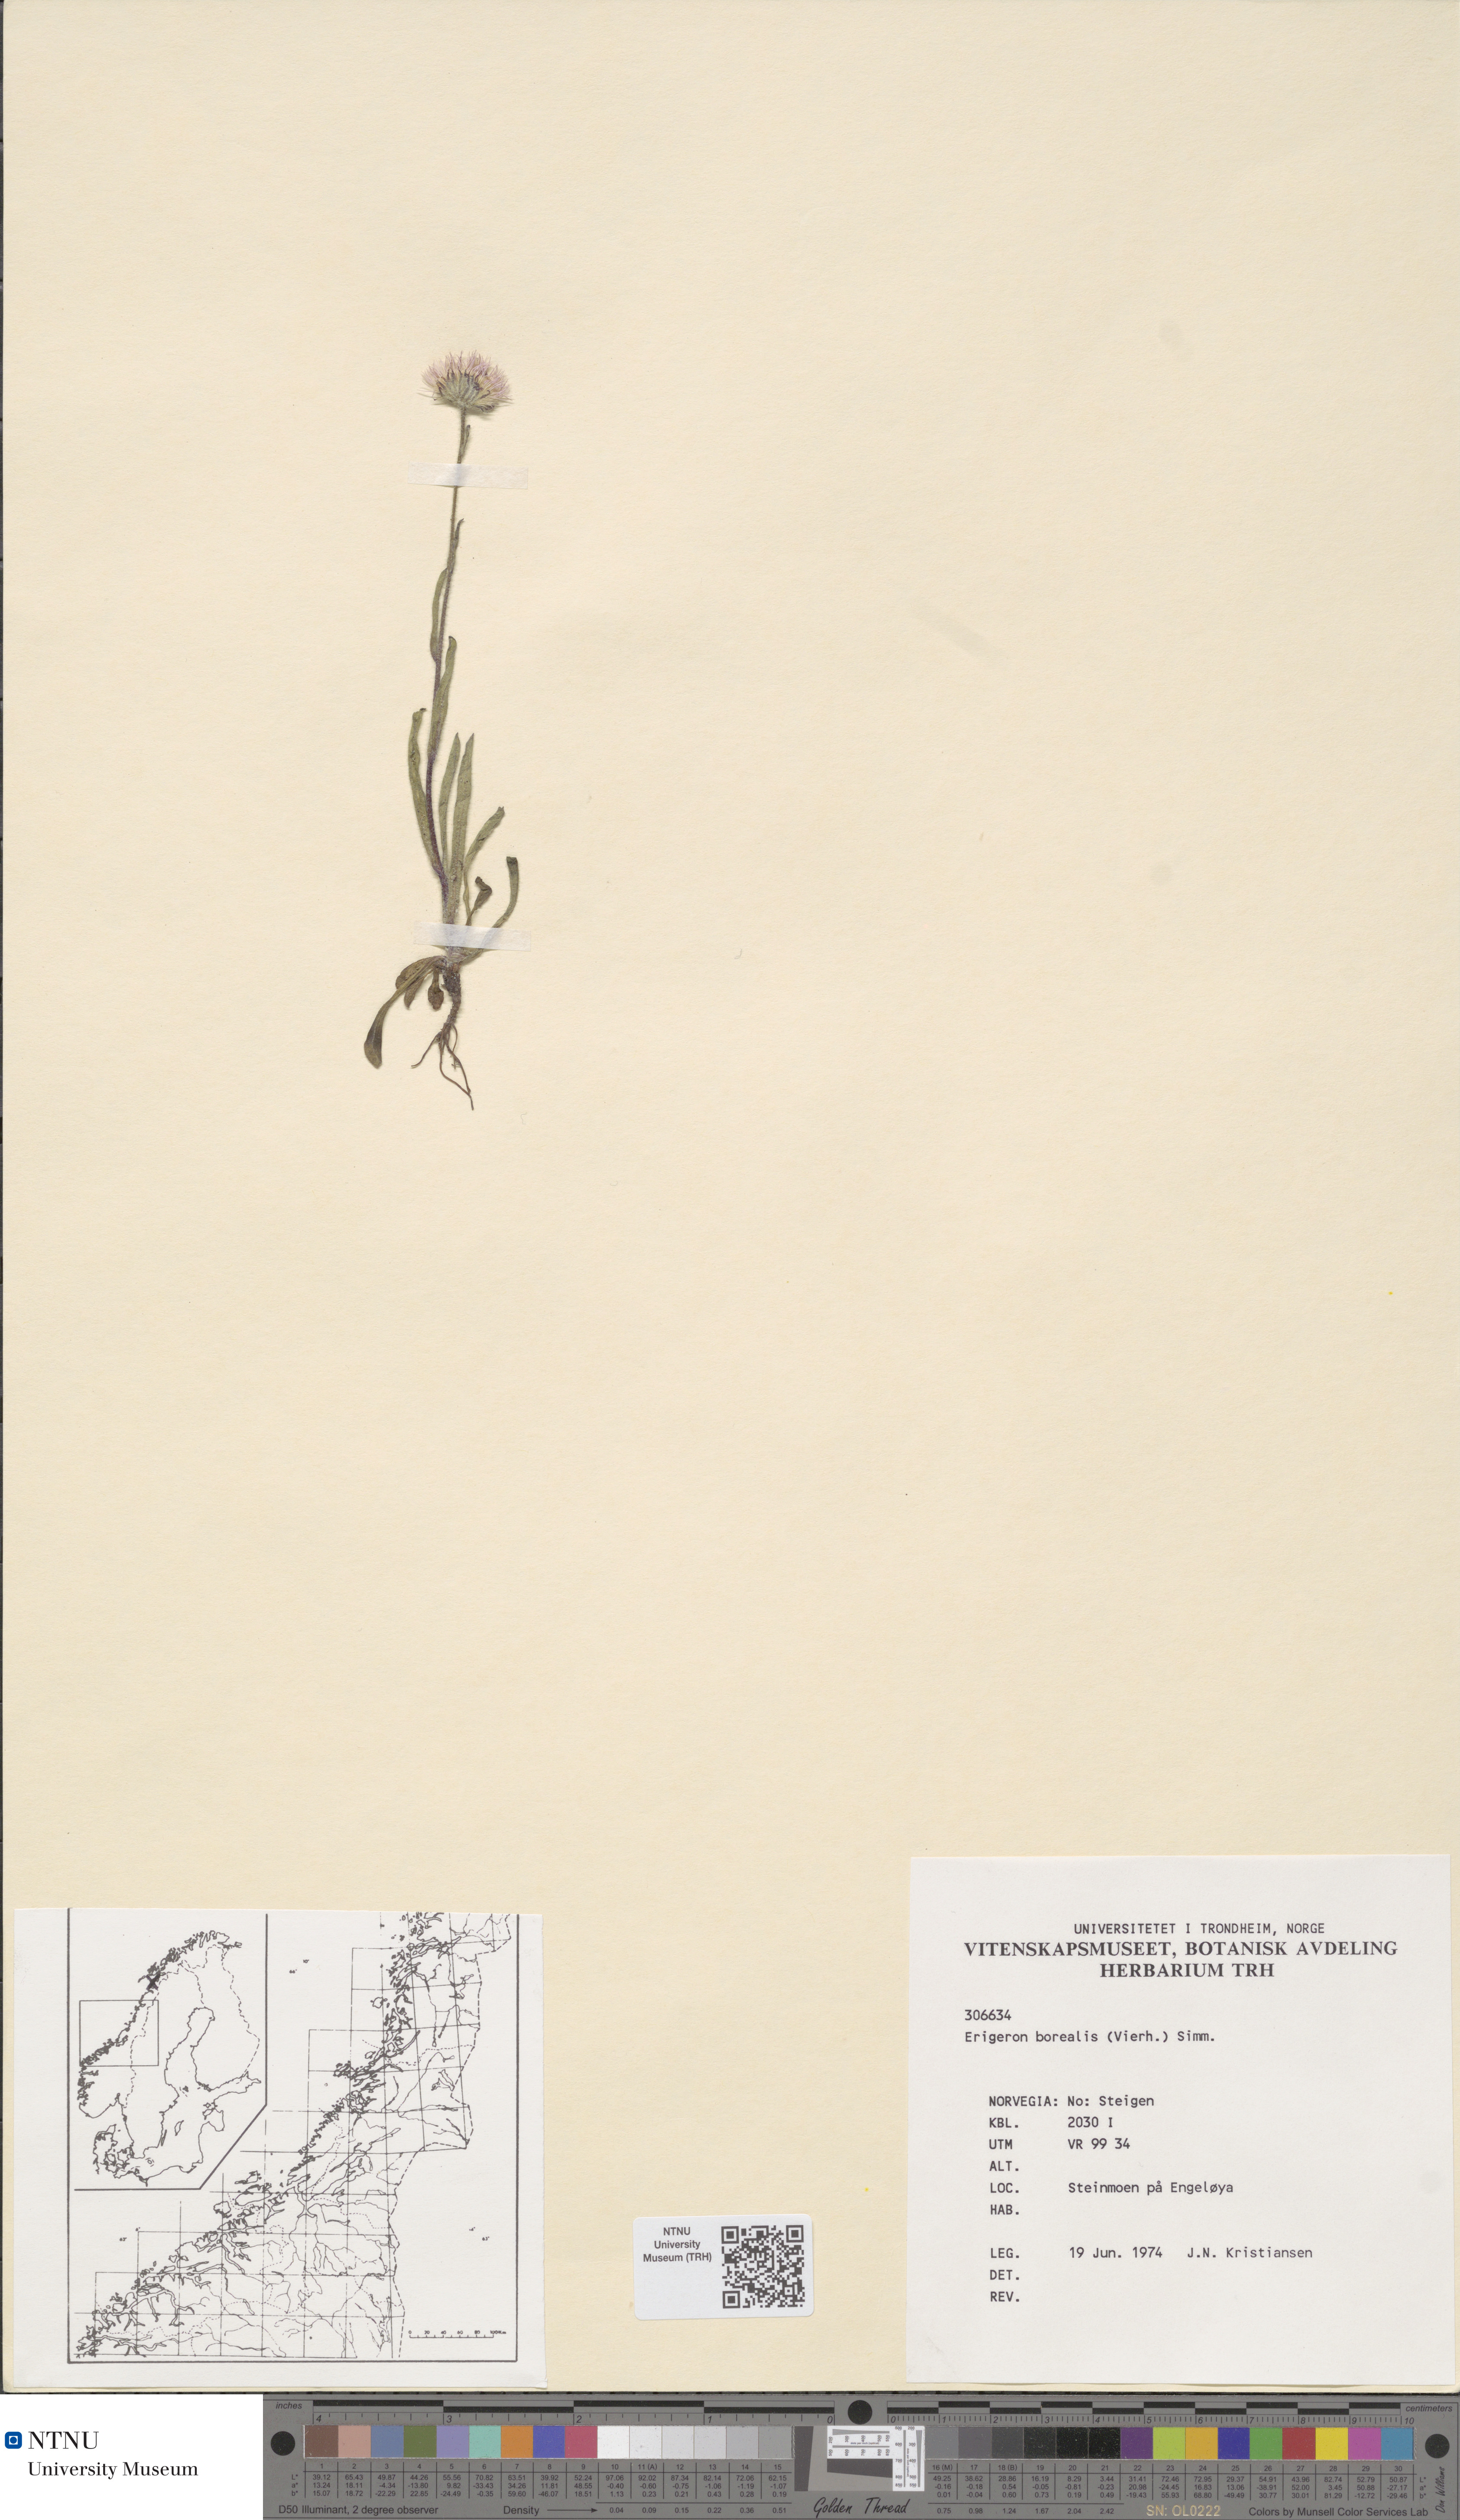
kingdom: Plantae
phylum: Tracheophyta
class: Magnoliopsida
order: Asterales
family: Asteraceae
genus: Erigeron
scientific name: Erigeron borealis
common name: Alpine fleabane
